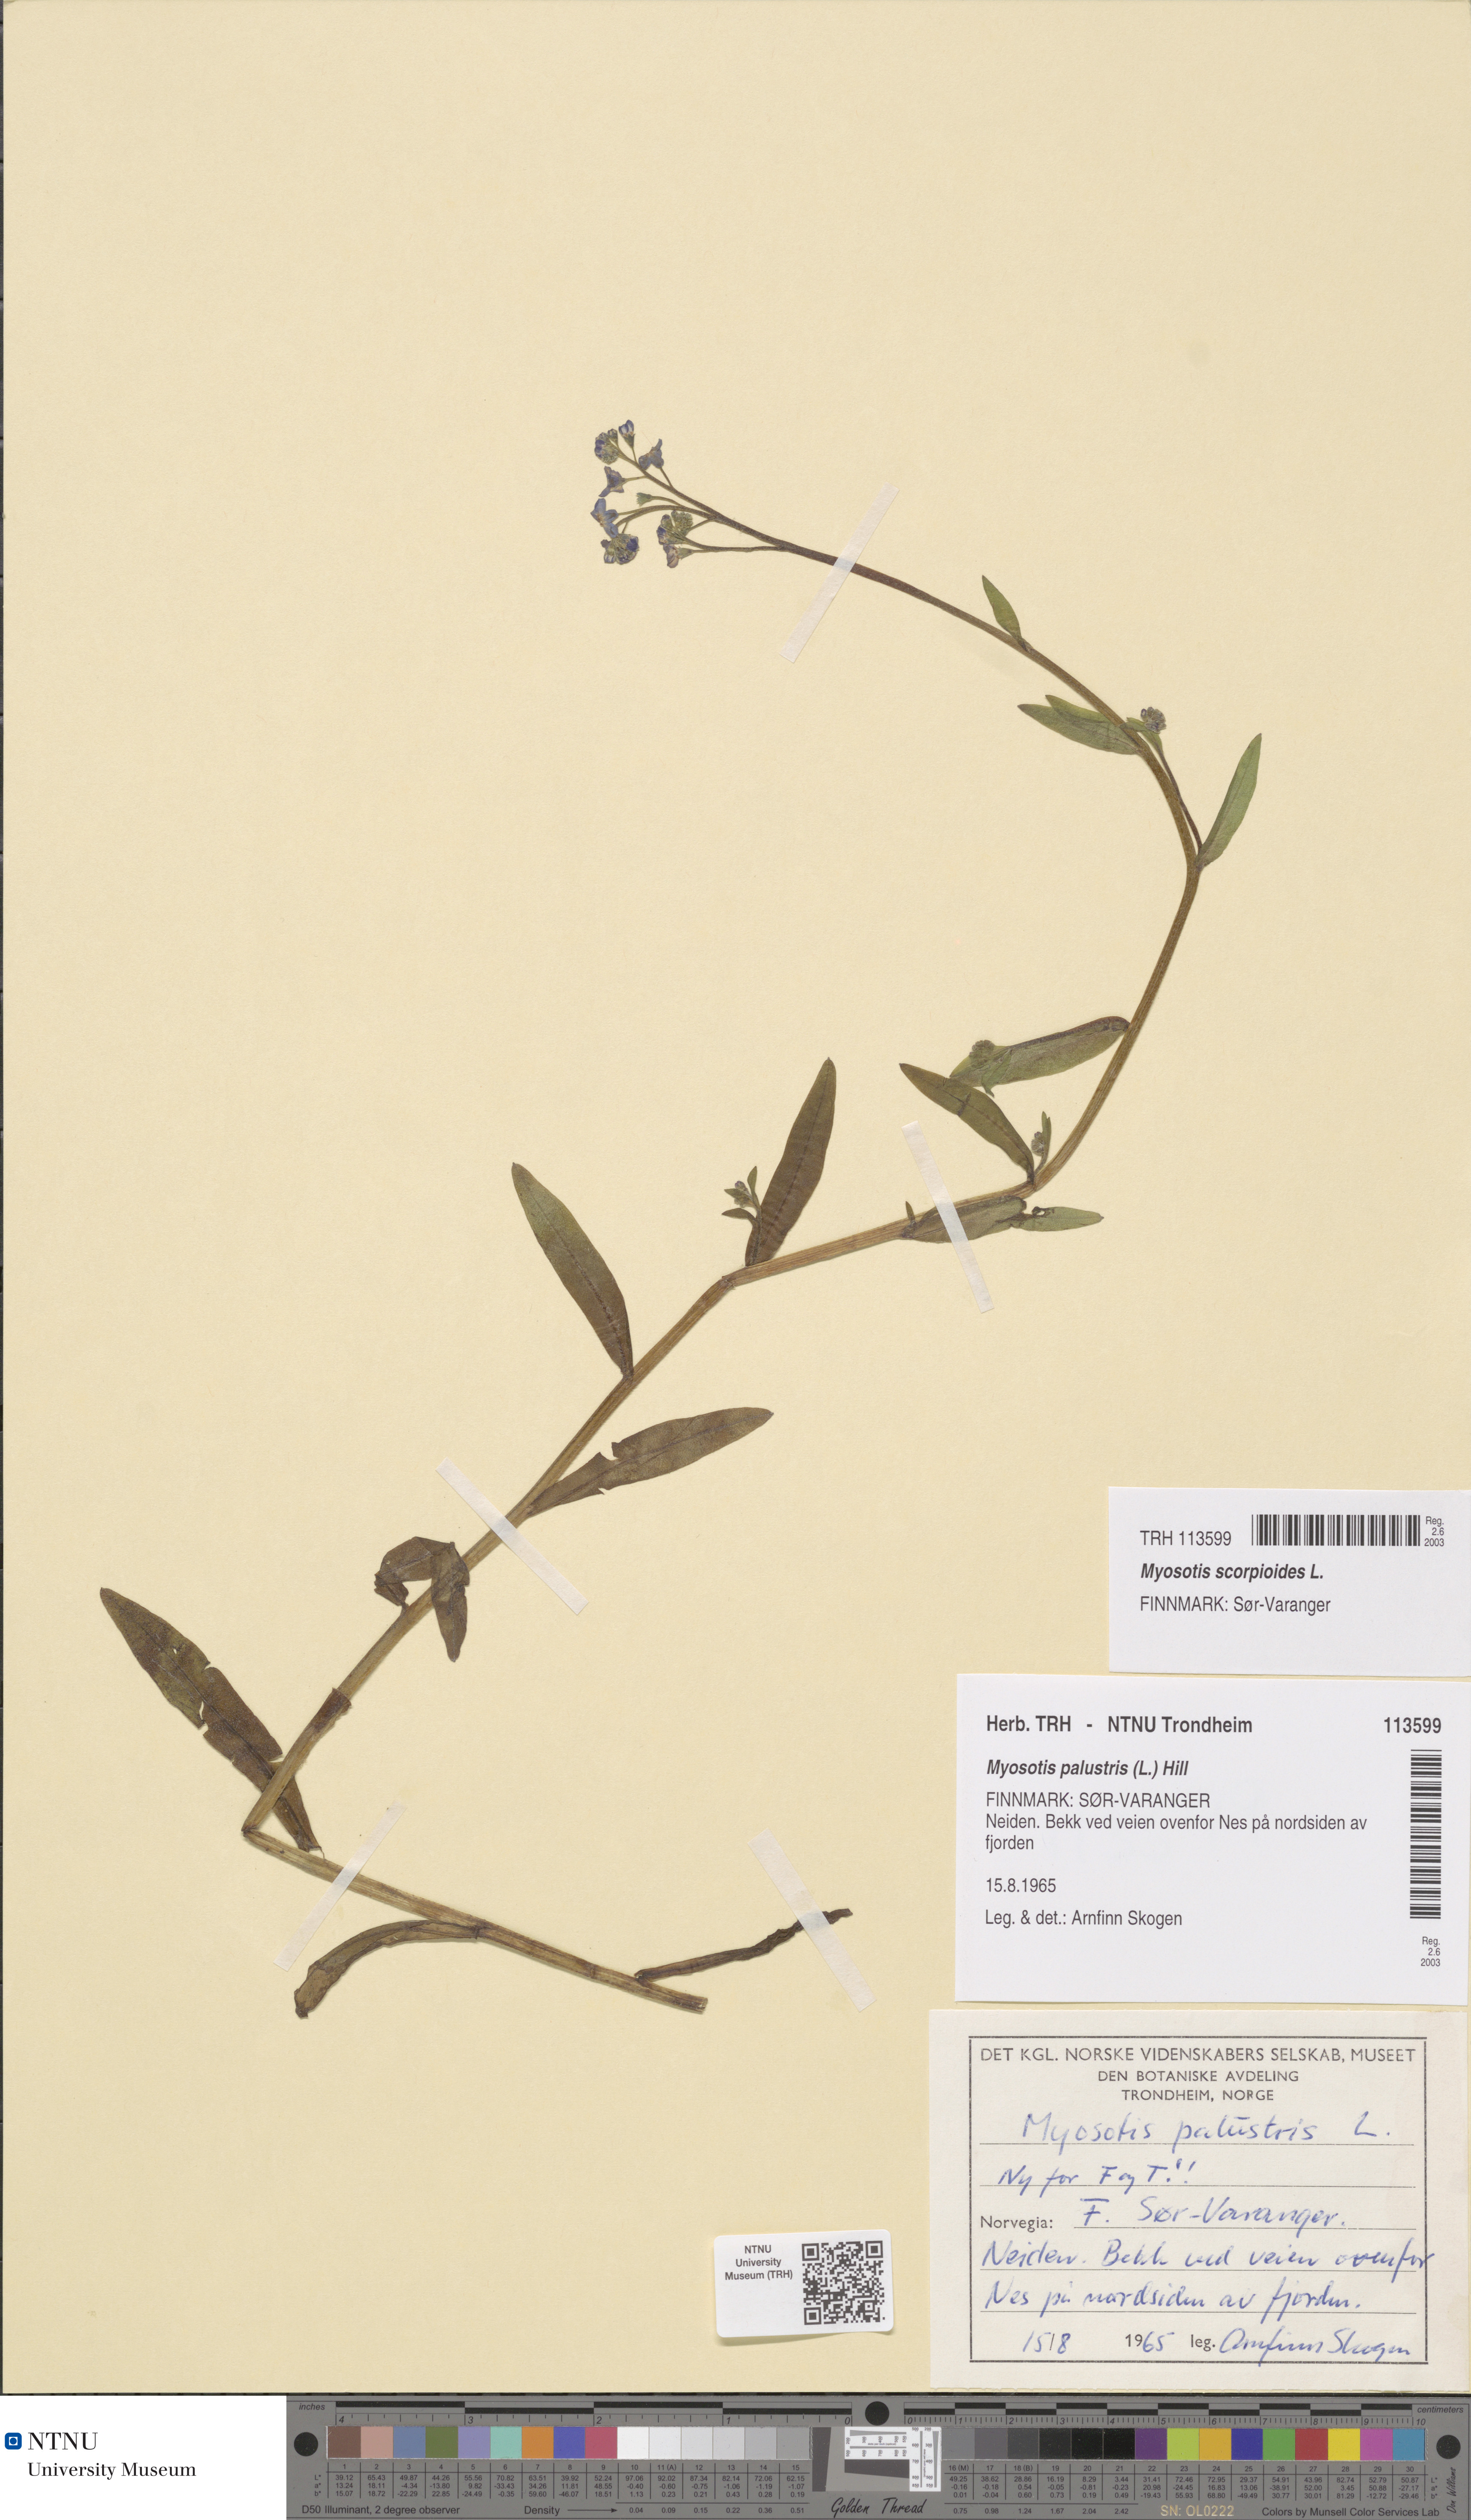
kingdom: Plantae
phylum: Tracheophyta
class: Magnoliopsida
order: Boraginales
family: Boraginaceae
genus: Myosotis
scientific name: Myosotis scorpioides
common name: Water forget-me-not
